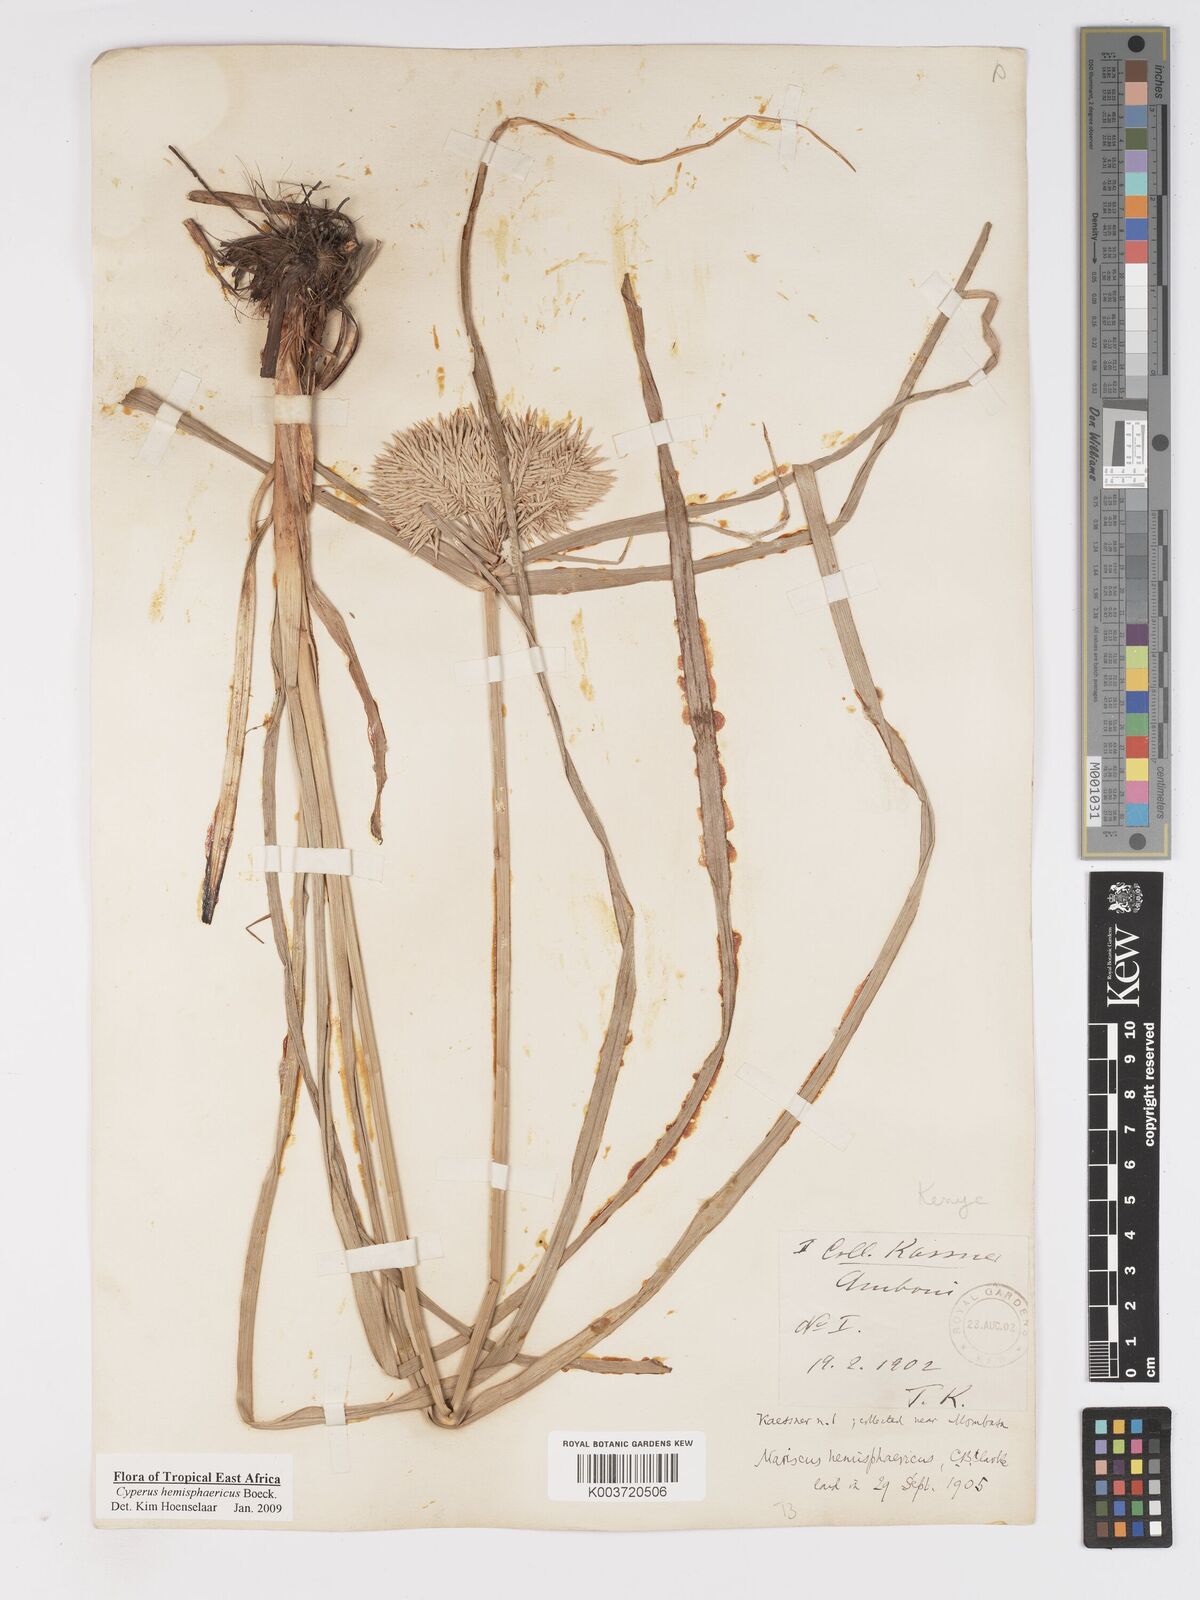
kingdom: Plantae
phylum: Tracheophyta
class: Liliopsida
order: Poales
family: Cyperaceae
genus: Cyperus
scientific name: Cyperus hemisphaericus
